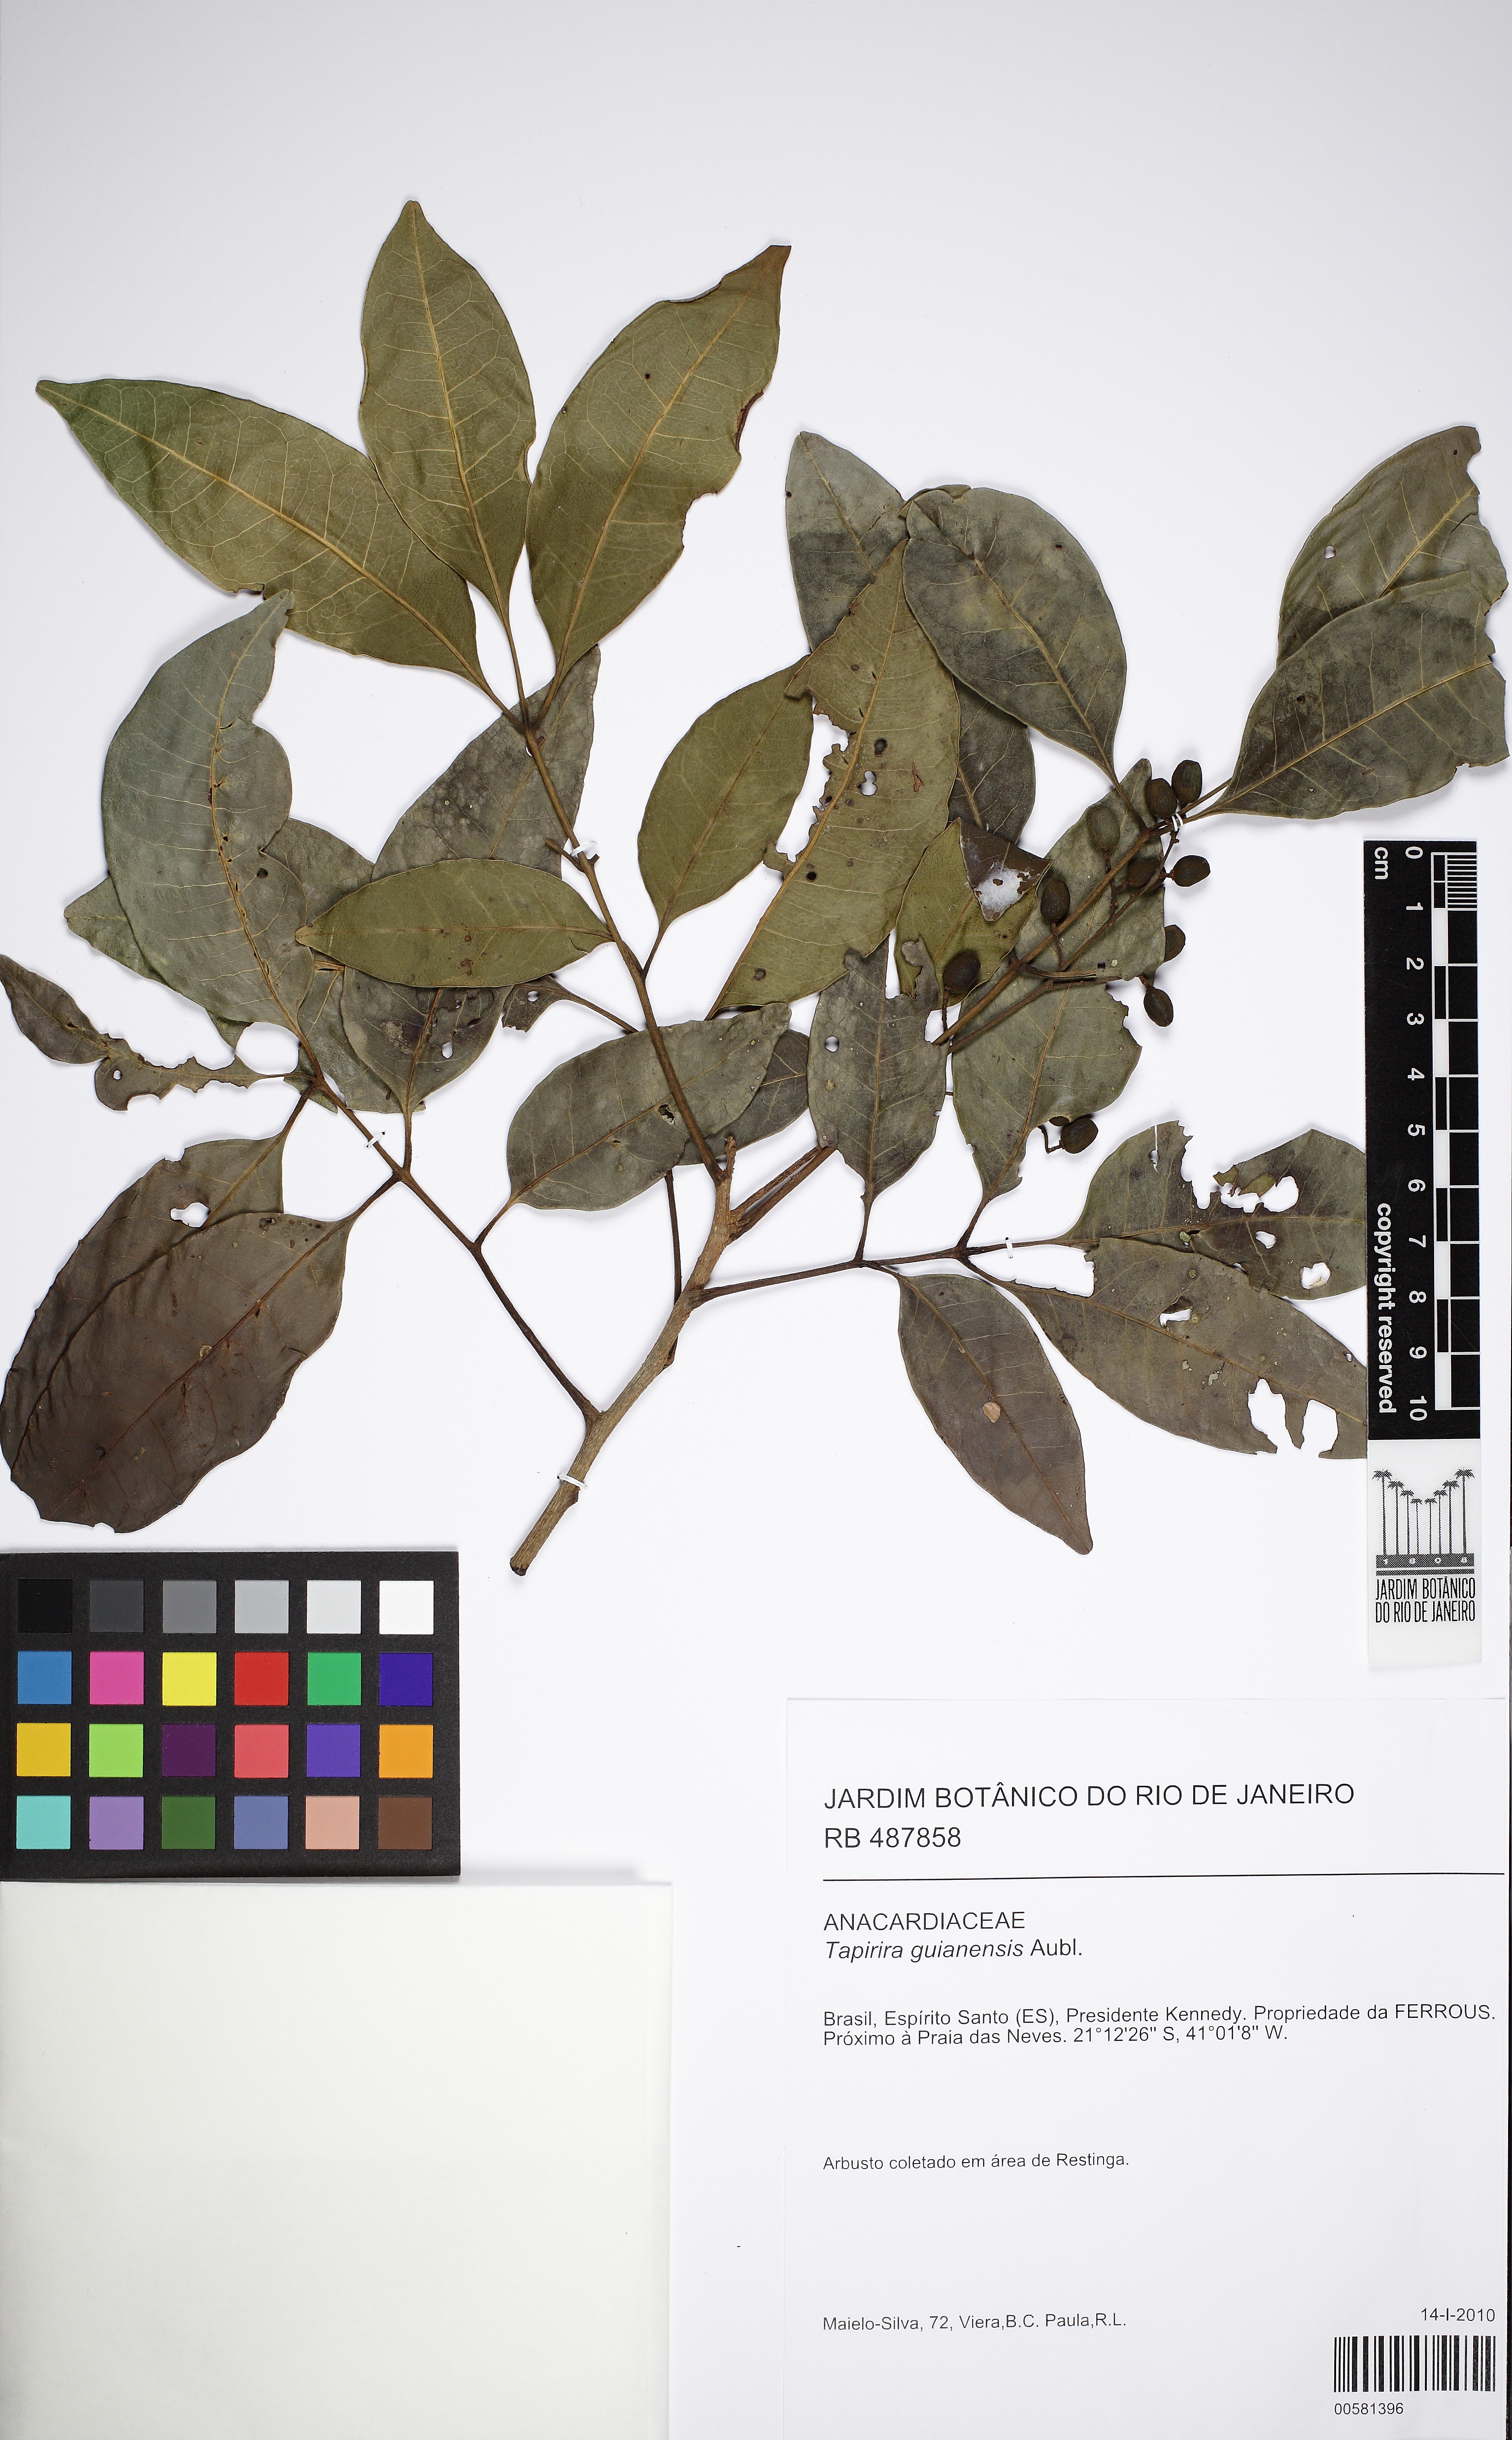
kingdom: Plantae
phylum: Tracheophyta
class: Magnoliopsida
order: Sapindales
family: Anacardiaceae
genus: Tapirira
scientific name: Tapirira guianensis
